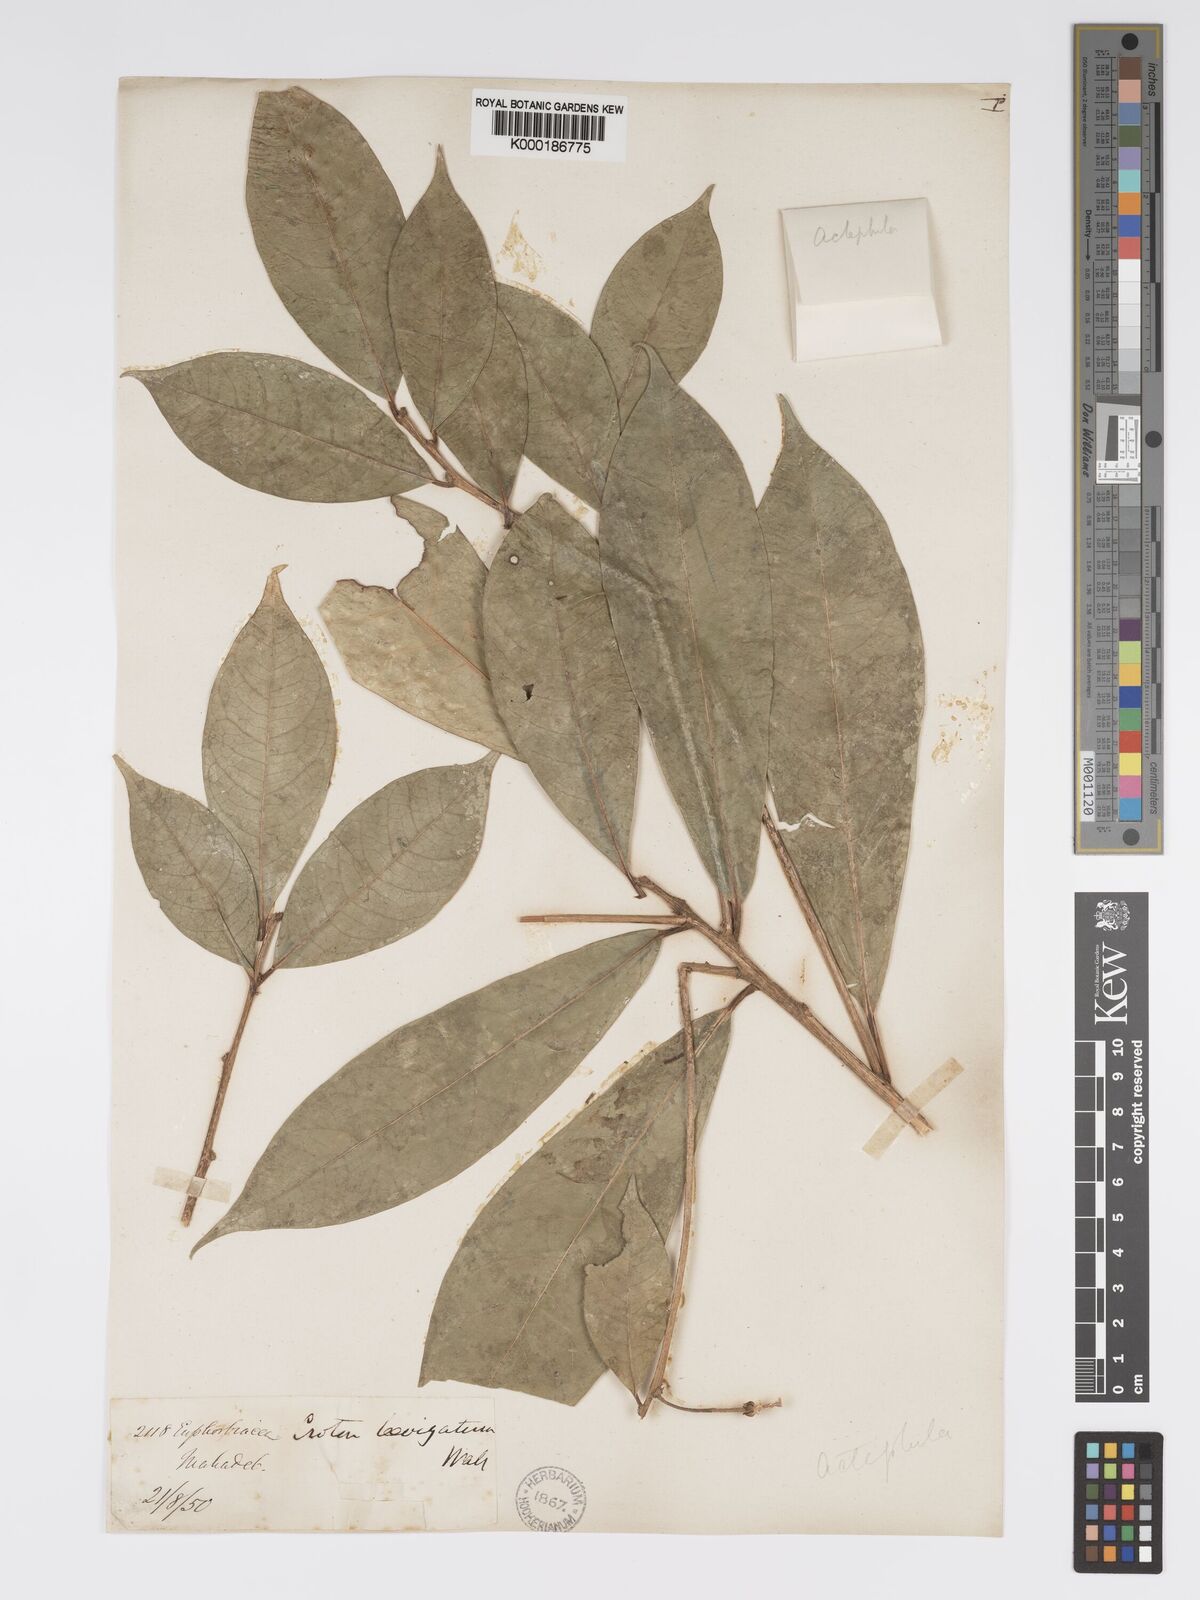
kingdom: Plantae
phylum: Tracheophyta
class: Magnoliopsida
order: Malpighiales
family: Phyllanthaceae
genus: Actephila
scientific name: Actephila excelsa
